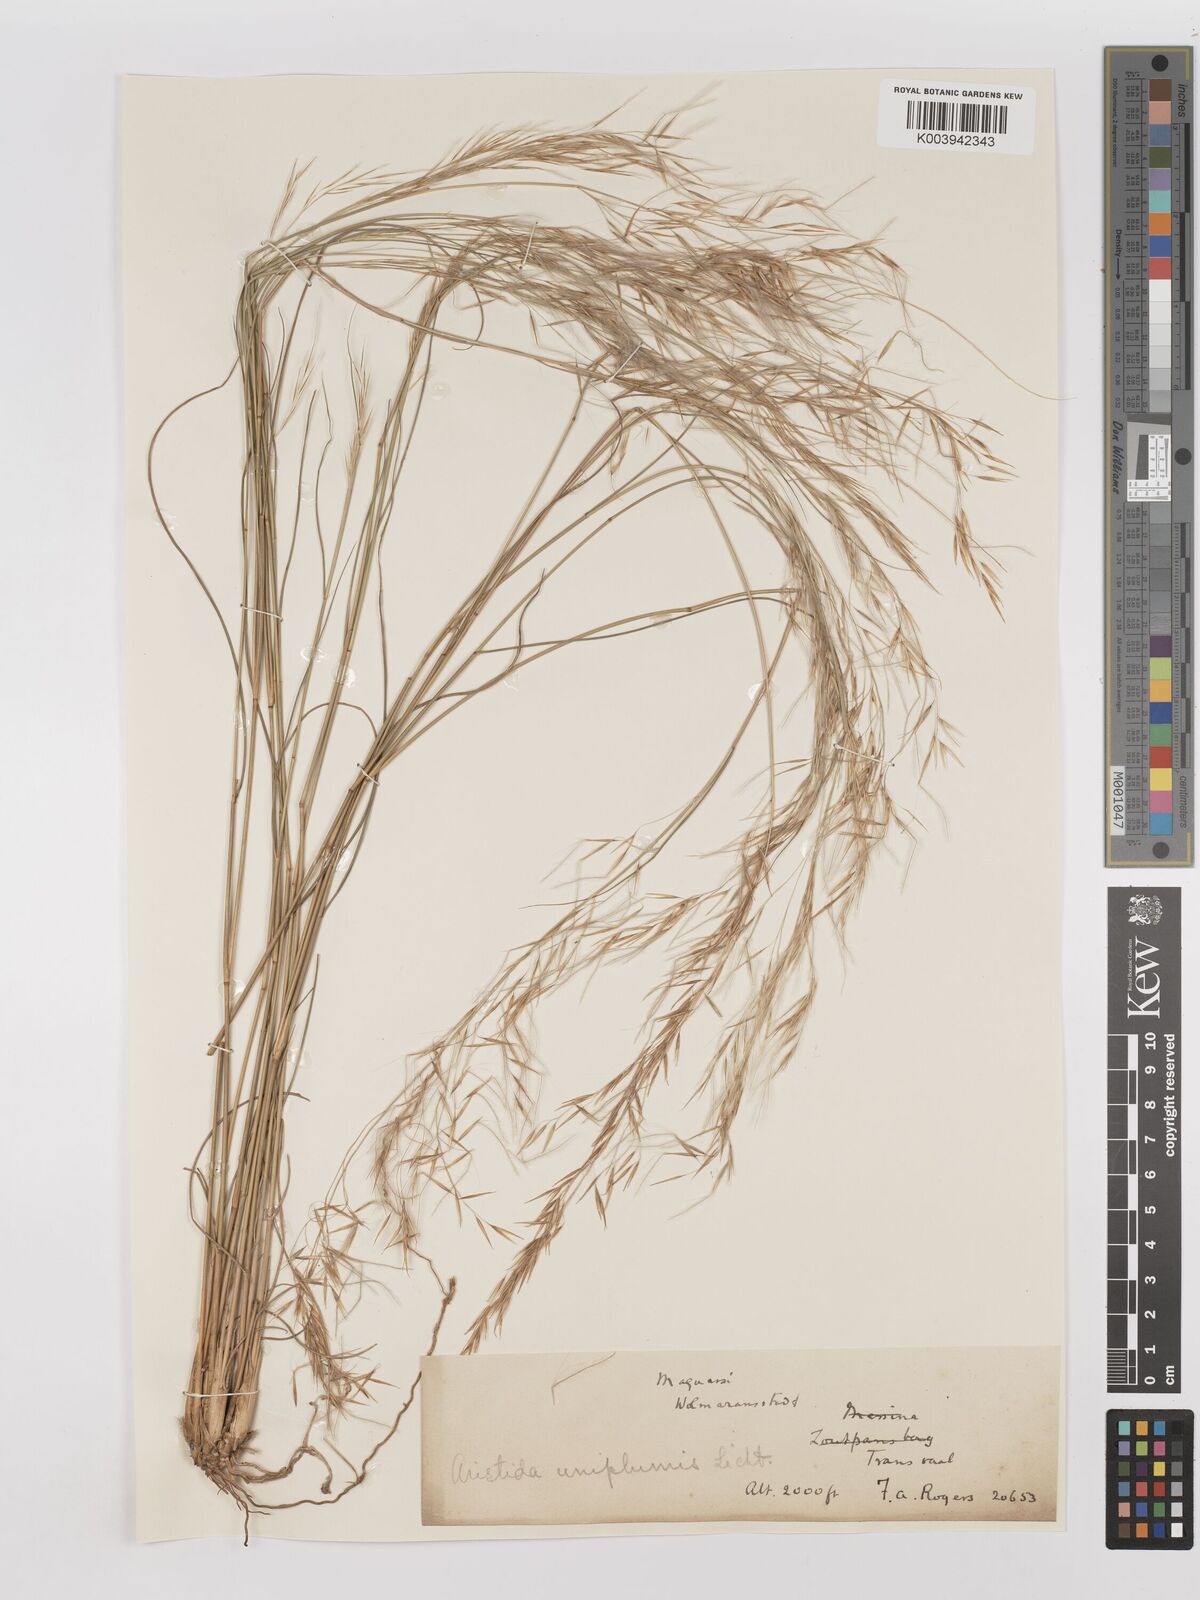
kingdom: Plantae
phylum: Tracheophyta
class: Liliopsida
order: Poales
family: Poaceae
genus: Stipagrostis
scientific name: Stipagrostis uniplumis
